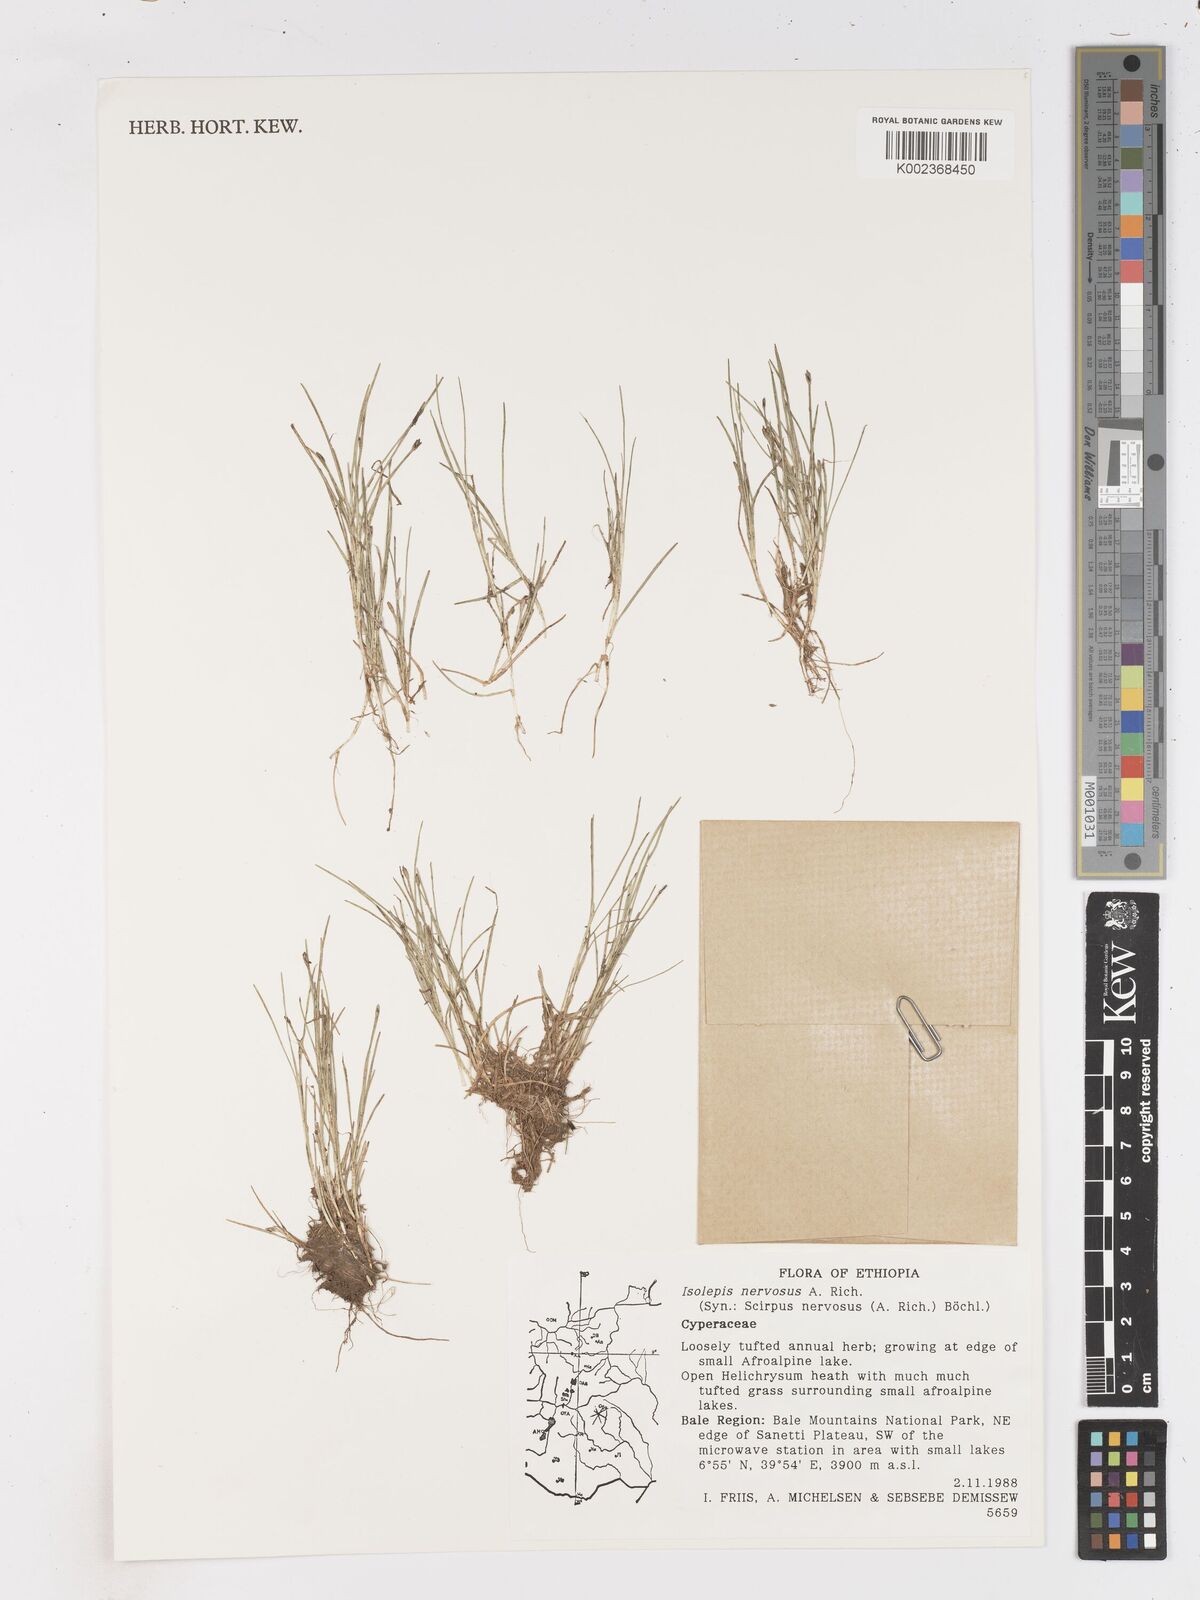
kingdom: Plantae
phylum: Tracheophyta
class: Liliopsida
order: Poales
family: Cyperaceae
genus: Isolepis
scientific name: Isolepis fluitans
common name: Floating club-rush
